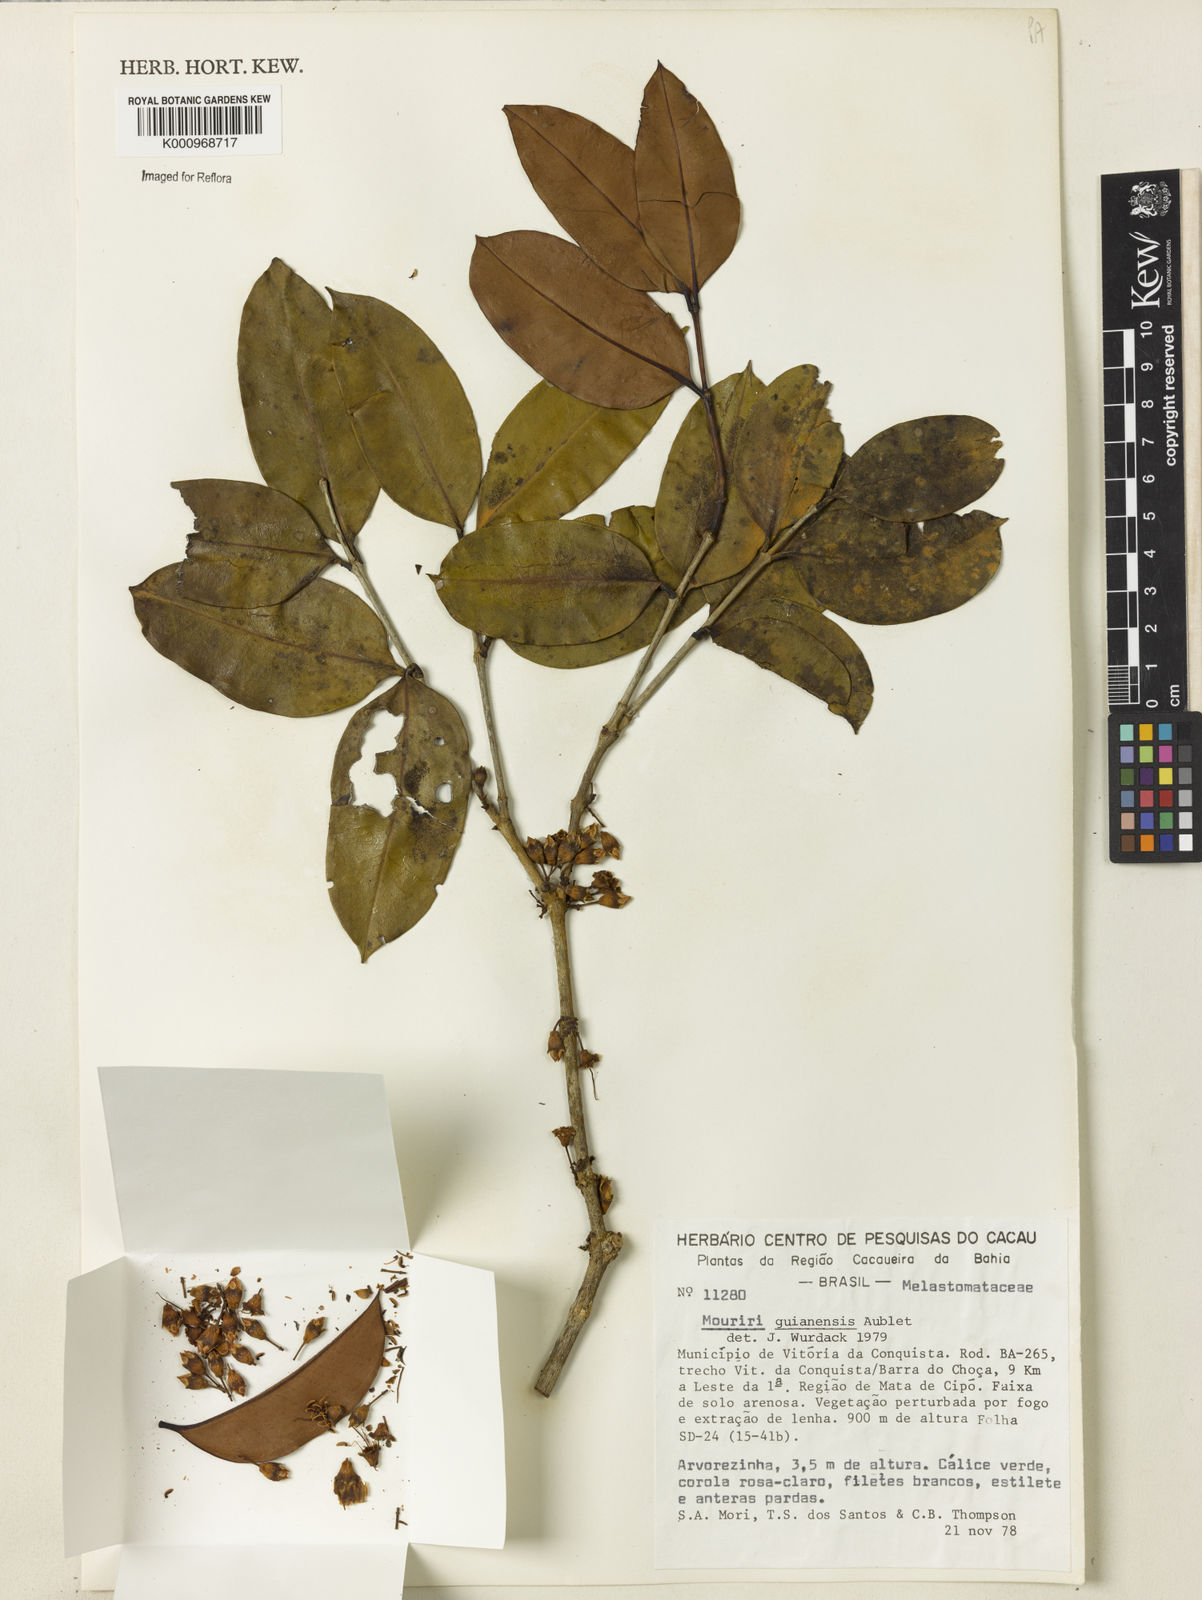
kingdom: Plantae
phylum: Tracheophyta
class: Magnoliopsida
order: Myrtales
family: Melastomataceae
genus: Mouriri
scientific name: Mouriri guianensis
